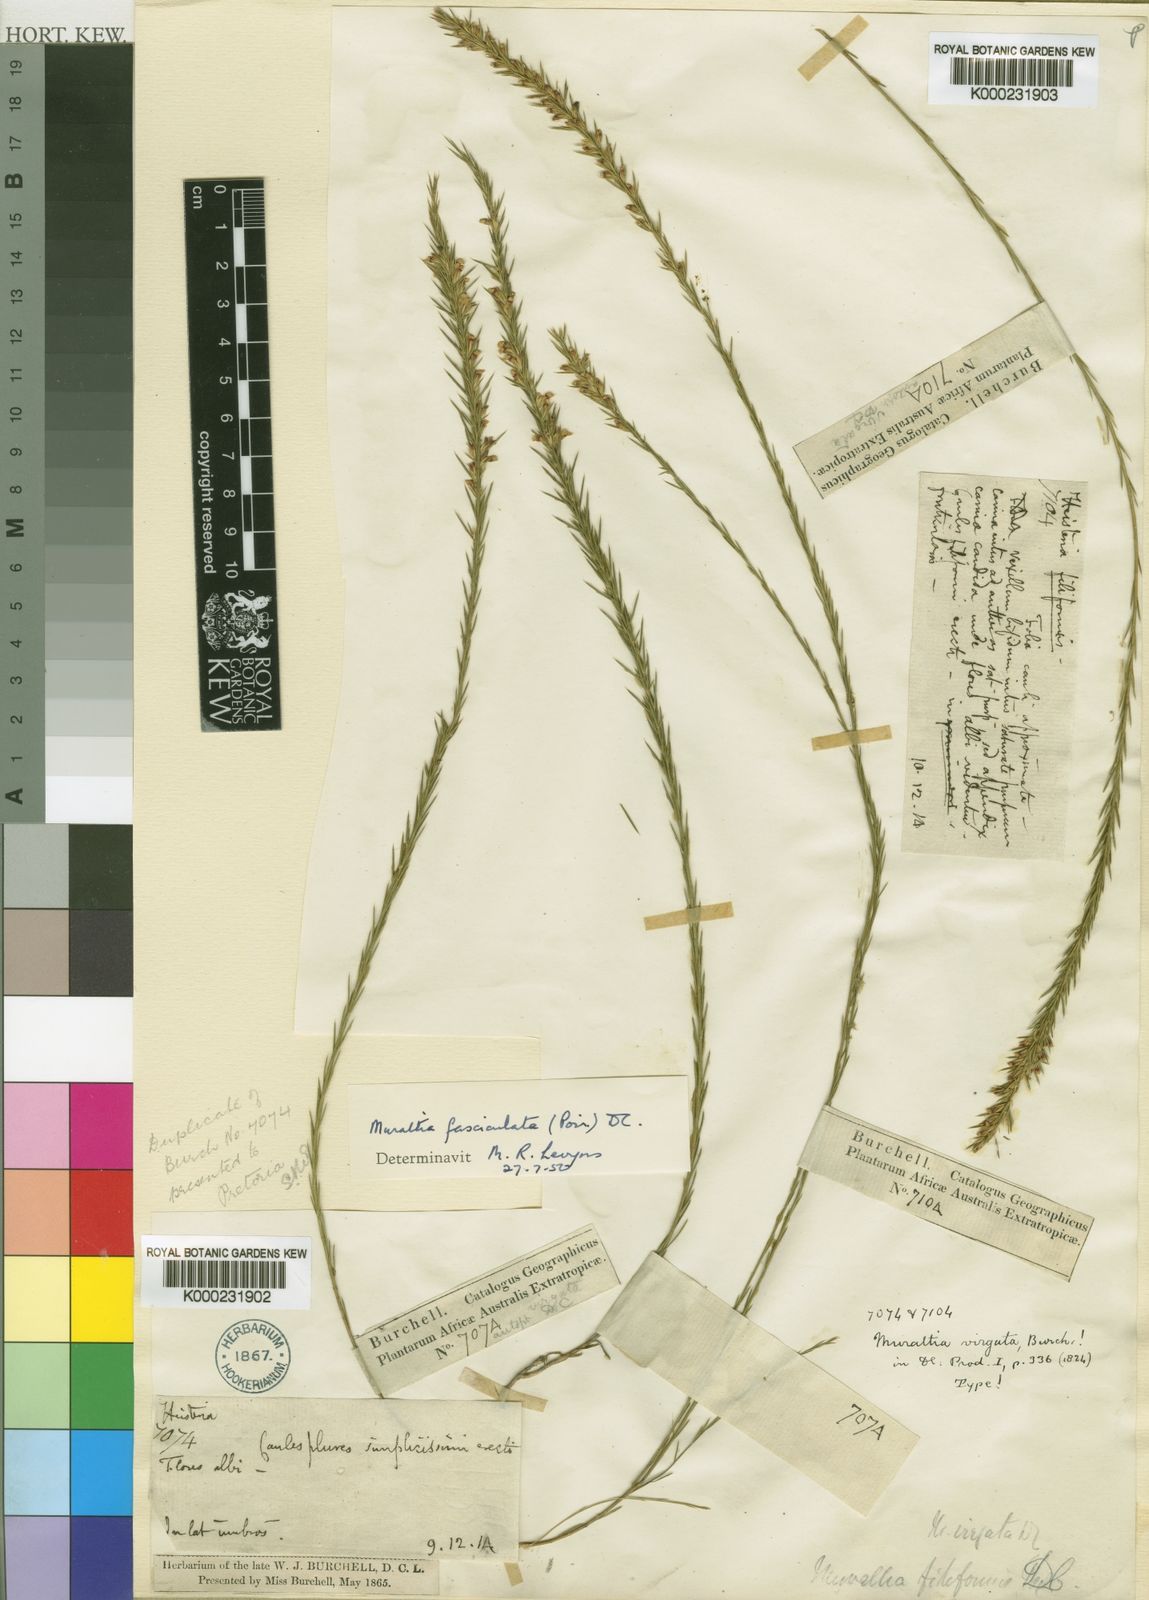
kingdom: Plantae
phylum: Tracheophyta
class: Magnoliopsida
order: Fabales
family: Polygalaceae
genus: Muraltia
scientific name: Muraltia ericoides
